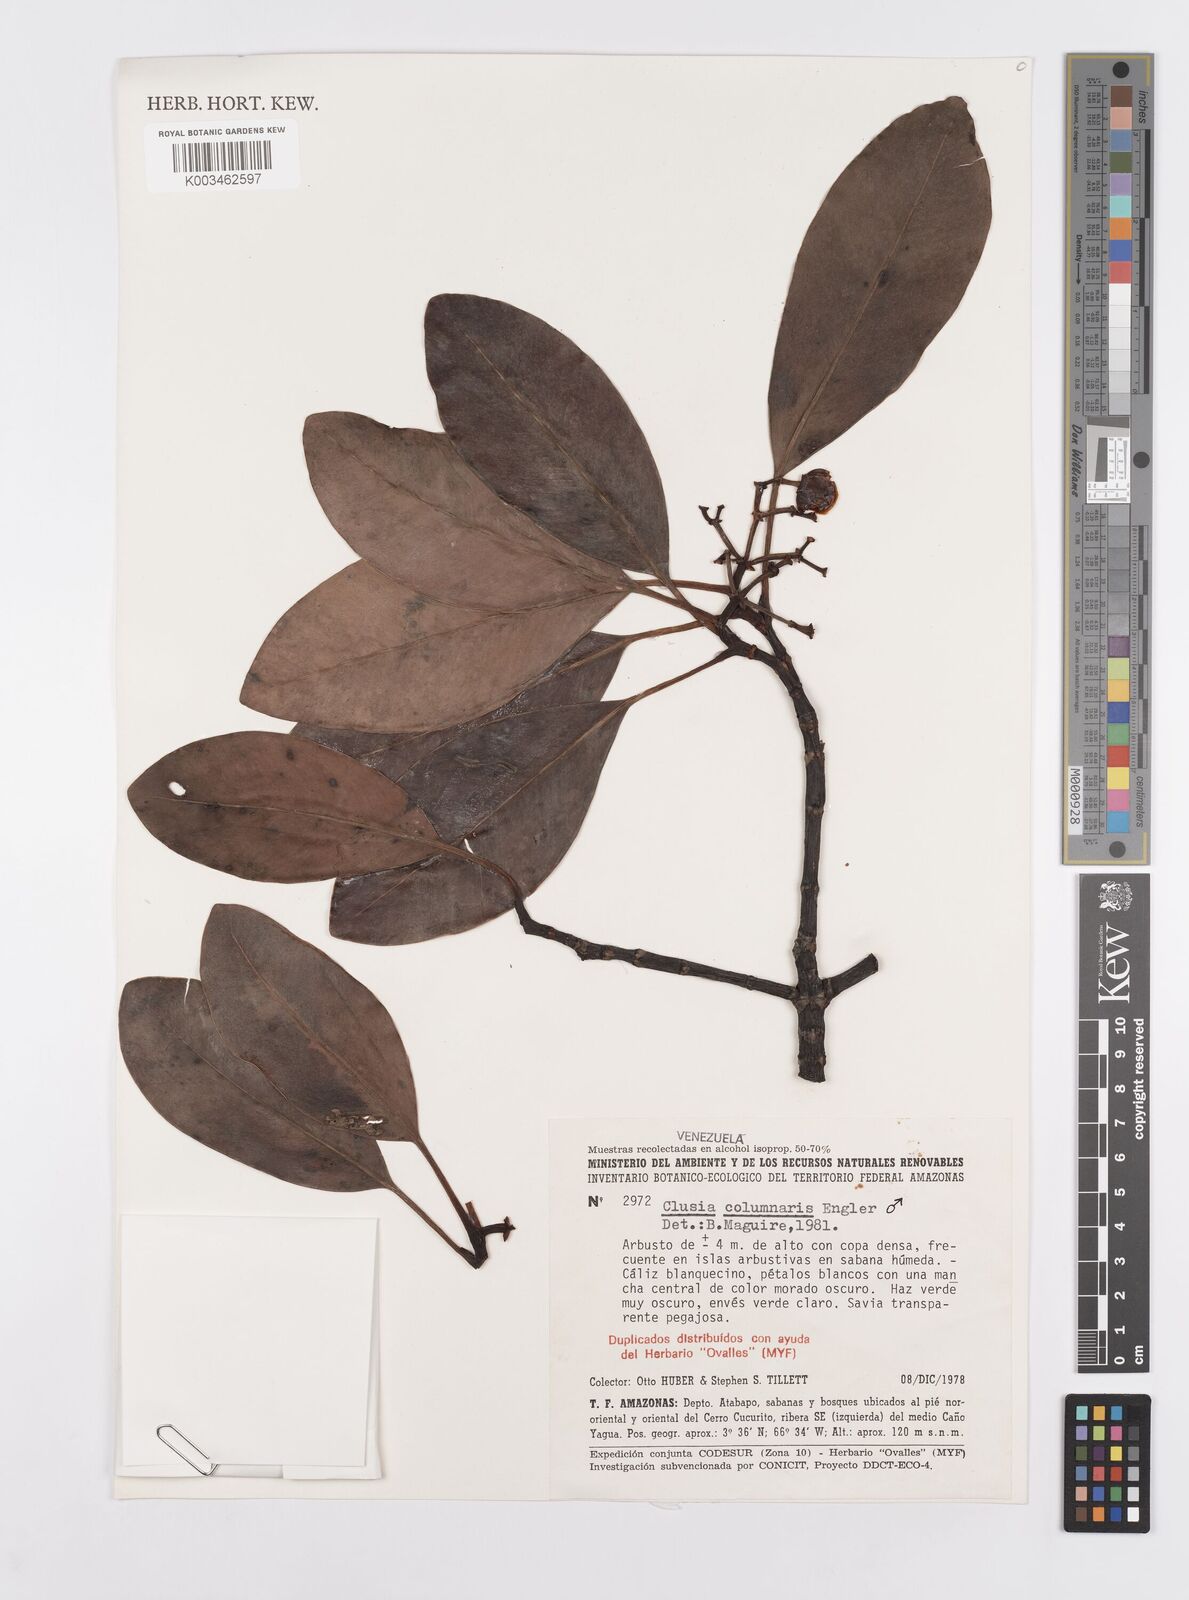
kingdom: Plantae
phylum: Tracheophyta
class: Magnoliopsida
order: Malpighiales
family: Clusiaceae
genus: Clusia
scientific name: Clusia columnaris
